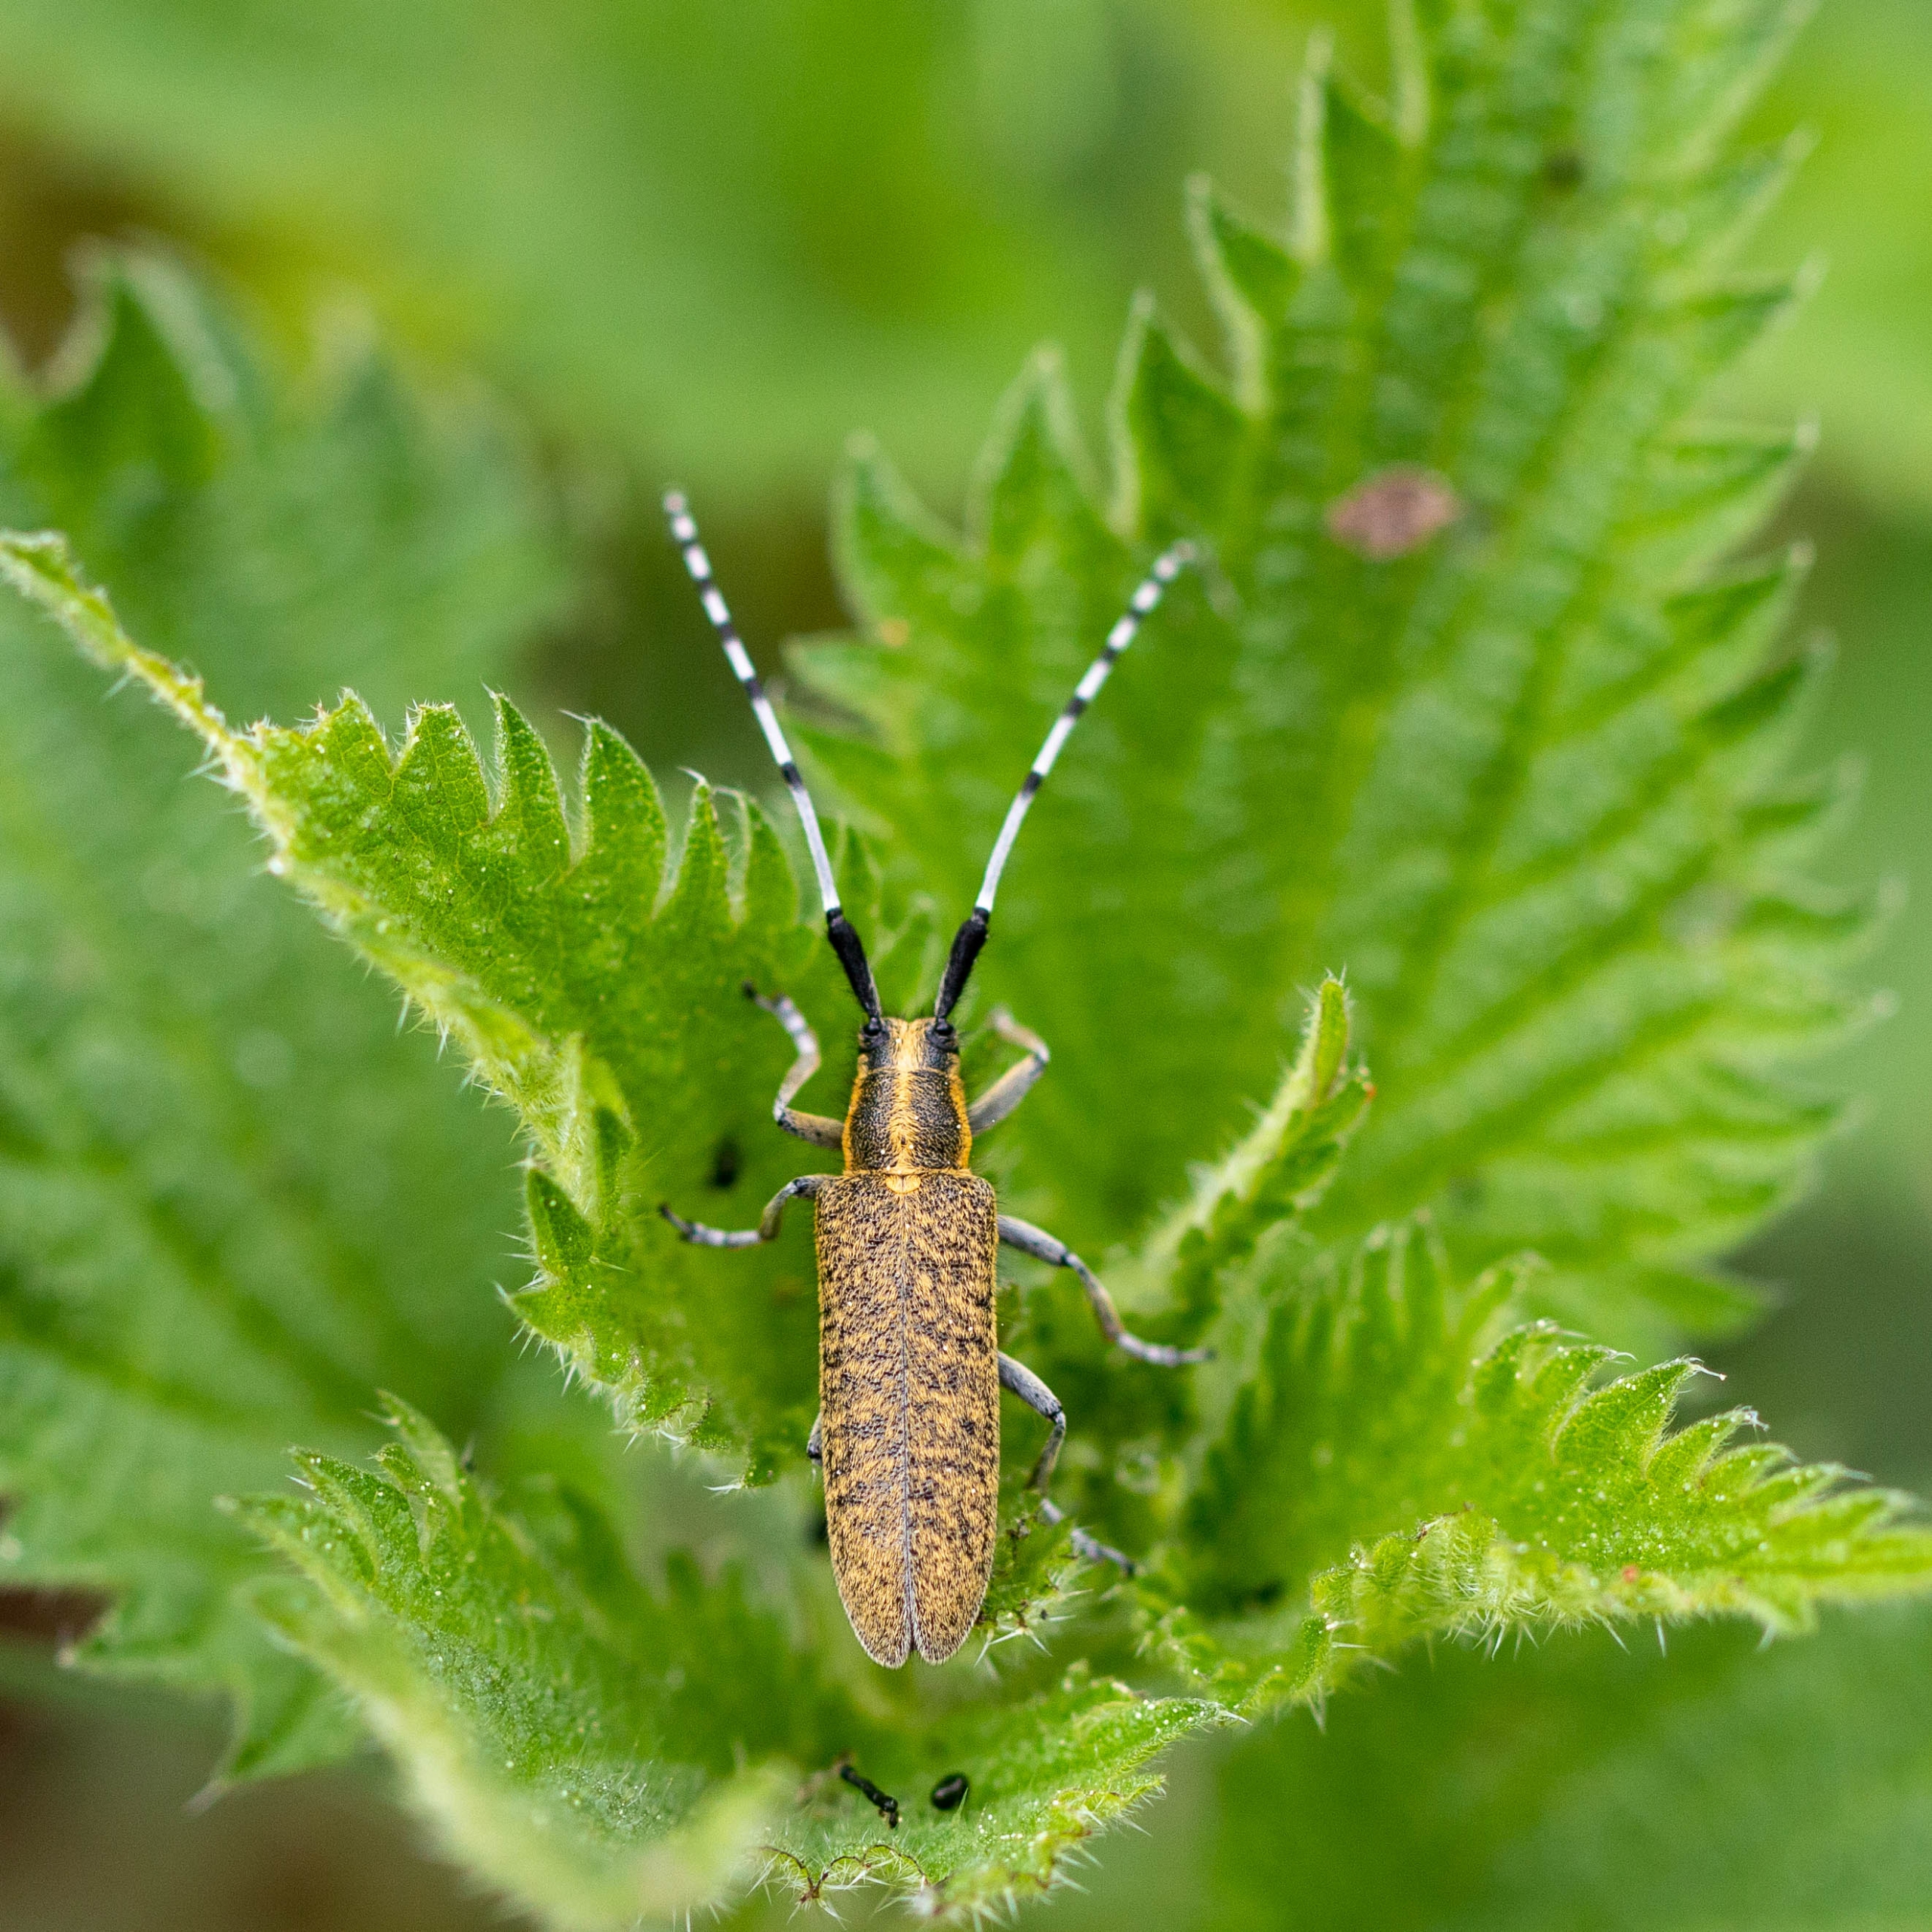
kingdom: Animalia
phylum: Arthropoda
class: Insecta
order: Coleoptera
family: Cerambycidae
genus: Agapanthia
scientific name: Agapanthia villosoviridescens
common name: Tidselbuk
